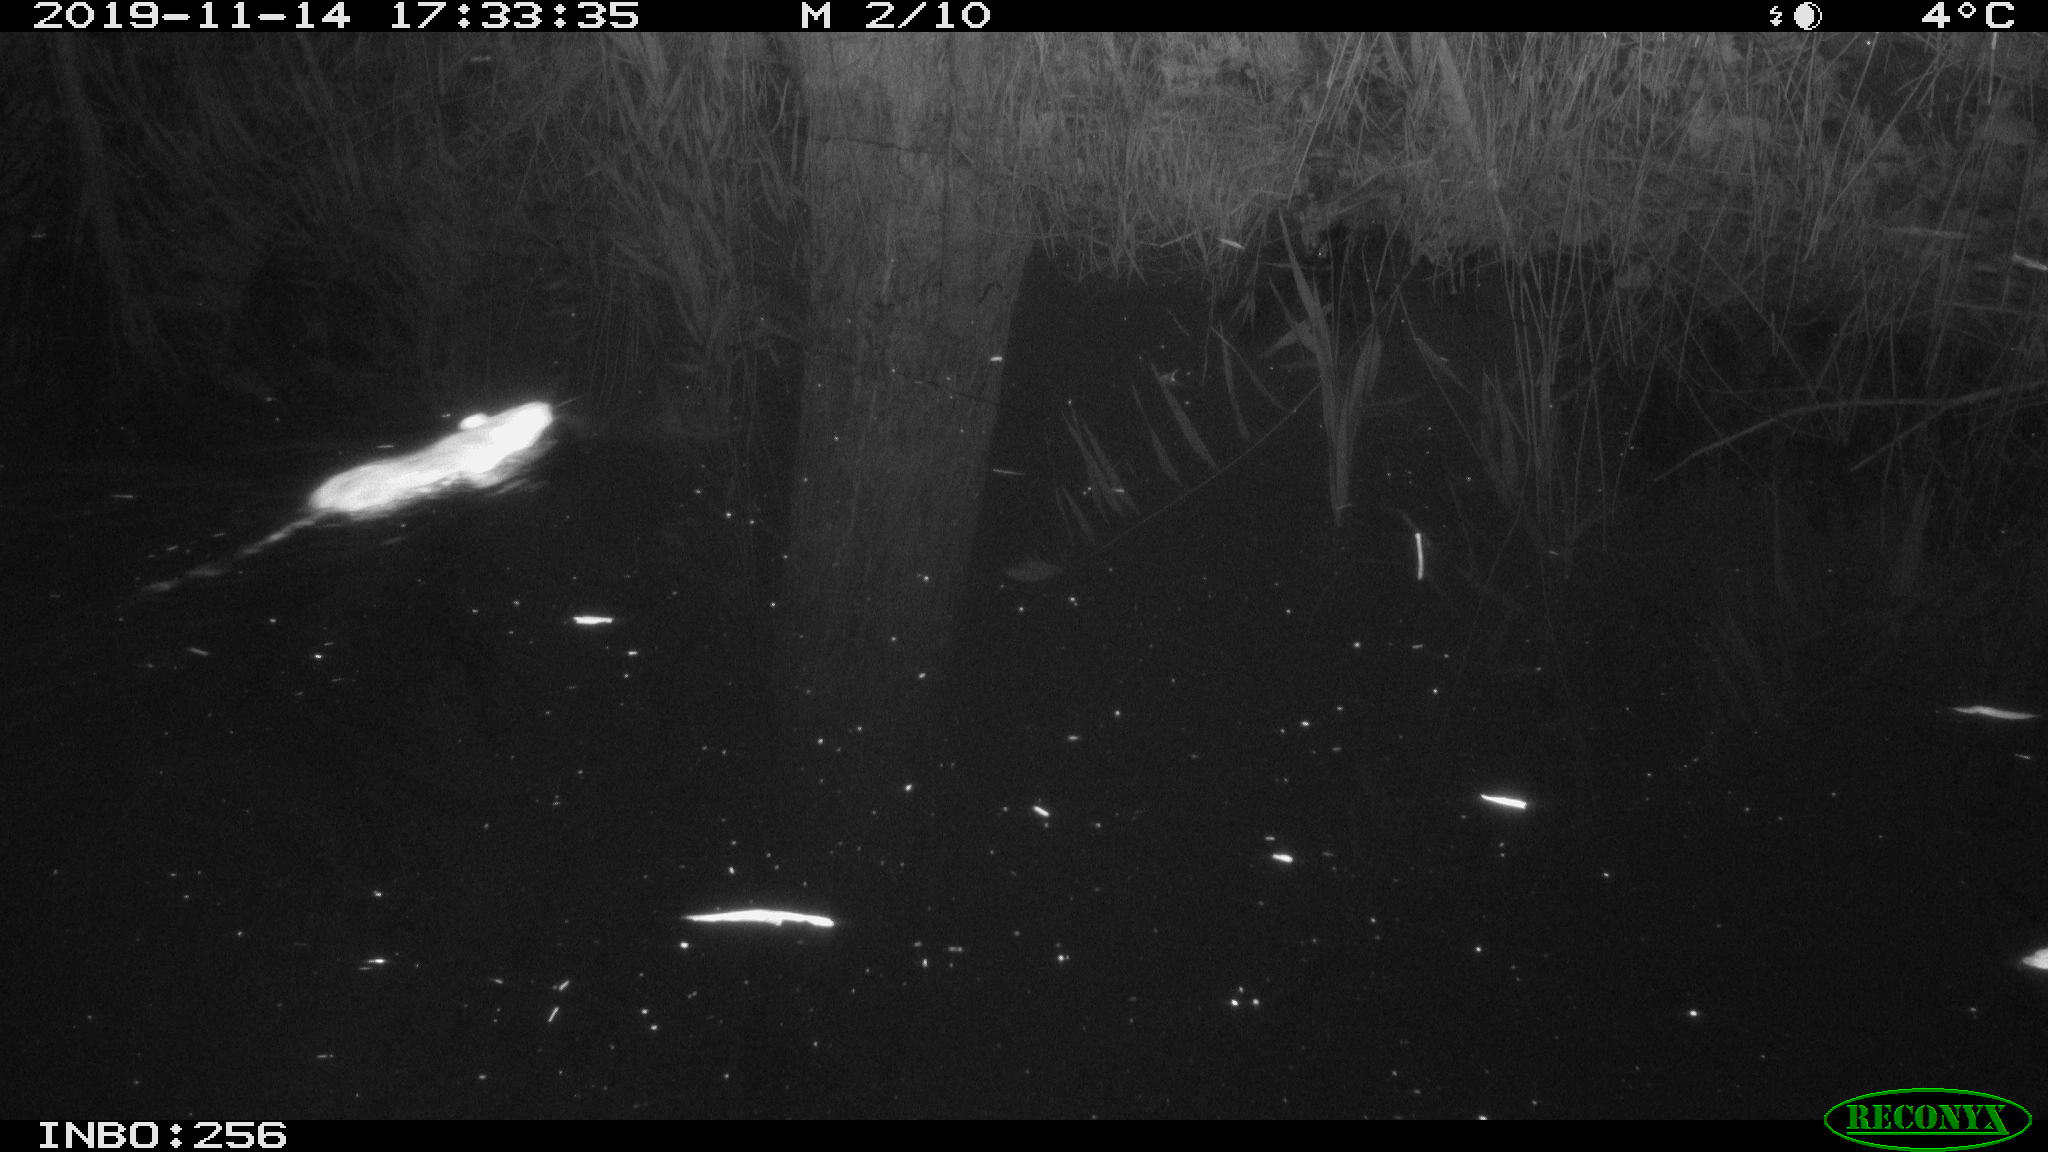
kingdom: Animalia
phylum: Chordata
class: Mammalia
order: Rodentia
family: Muridae
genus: Rattus
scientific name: Rattus norvegicus
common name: Brown rat
